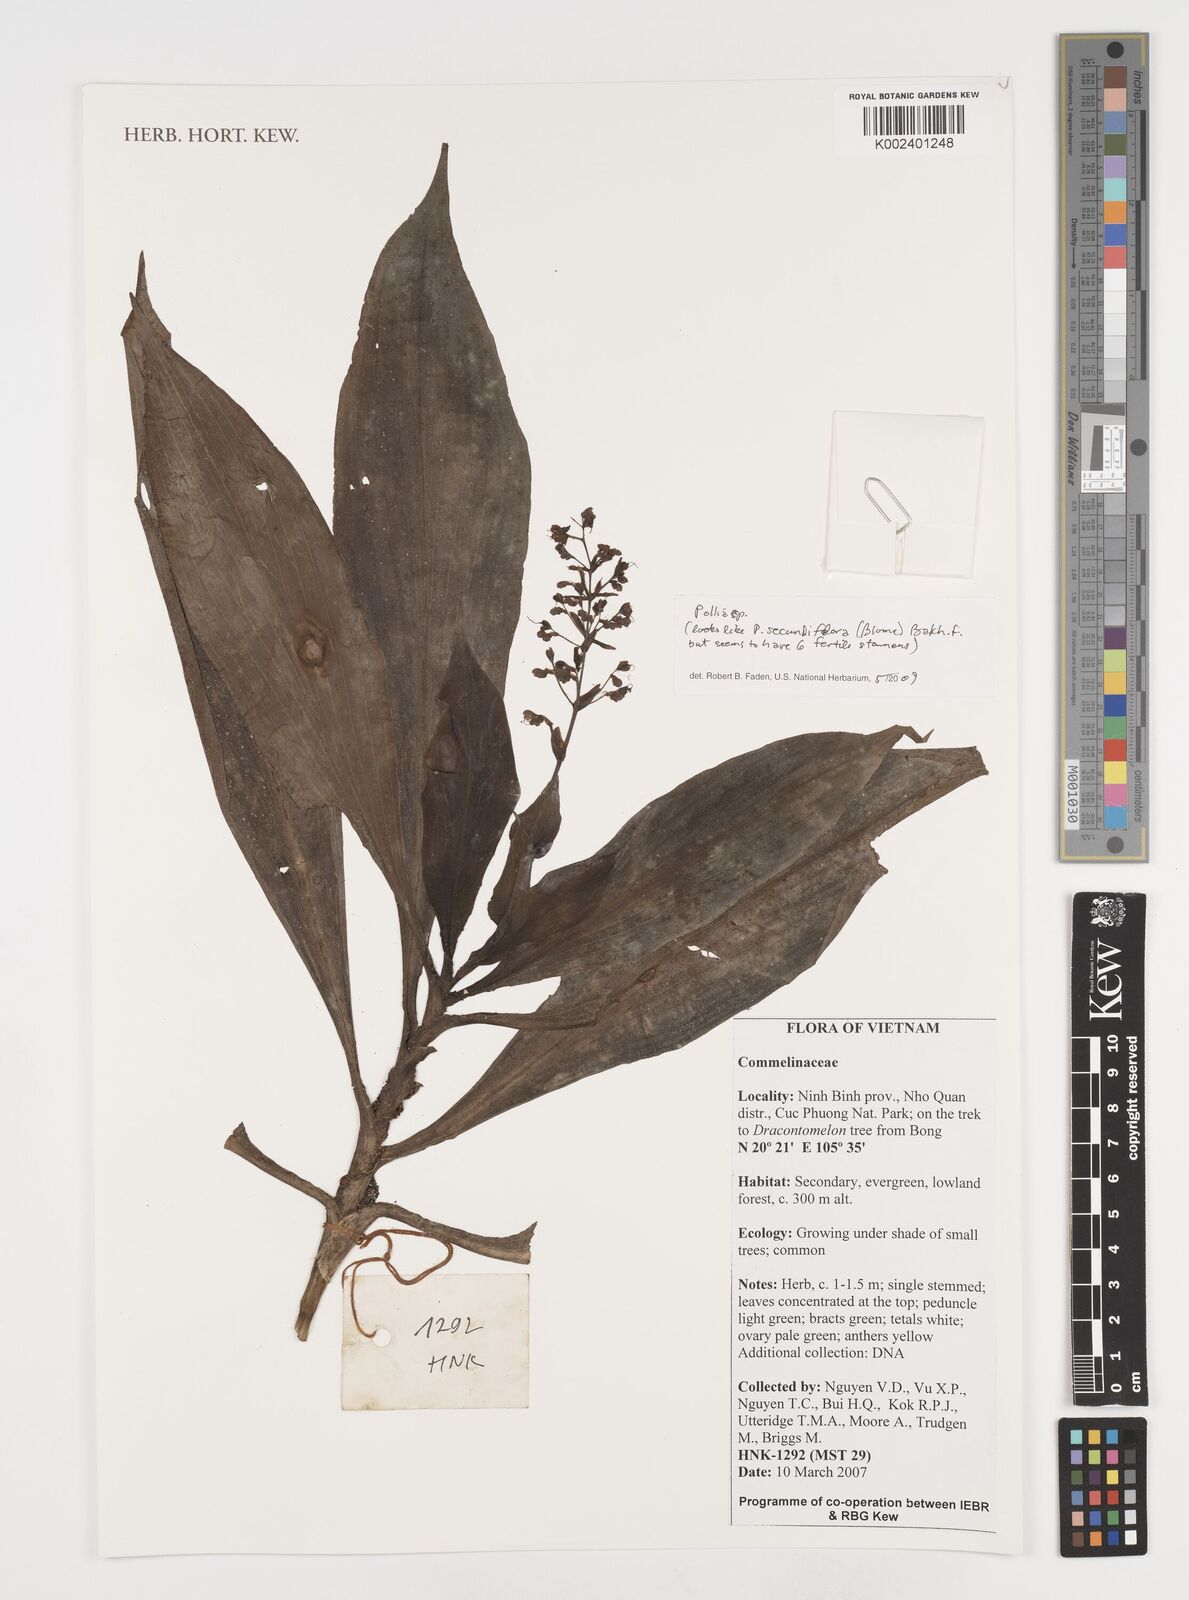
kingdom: Plantae
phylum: Tracheophyta
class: Liliopsida
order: Commelinales
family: Commelinaceae
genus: Pollia
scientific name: Pollia
